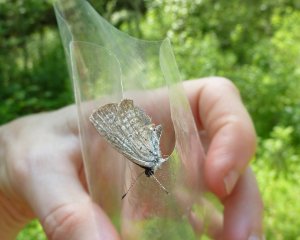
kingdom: Animalia
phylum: Arthropoda
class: Insecta
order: Lepidoptera
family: Lycaenidae
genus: Cyaniris
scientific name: Cyaniris neglecta
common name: Summer Azure
